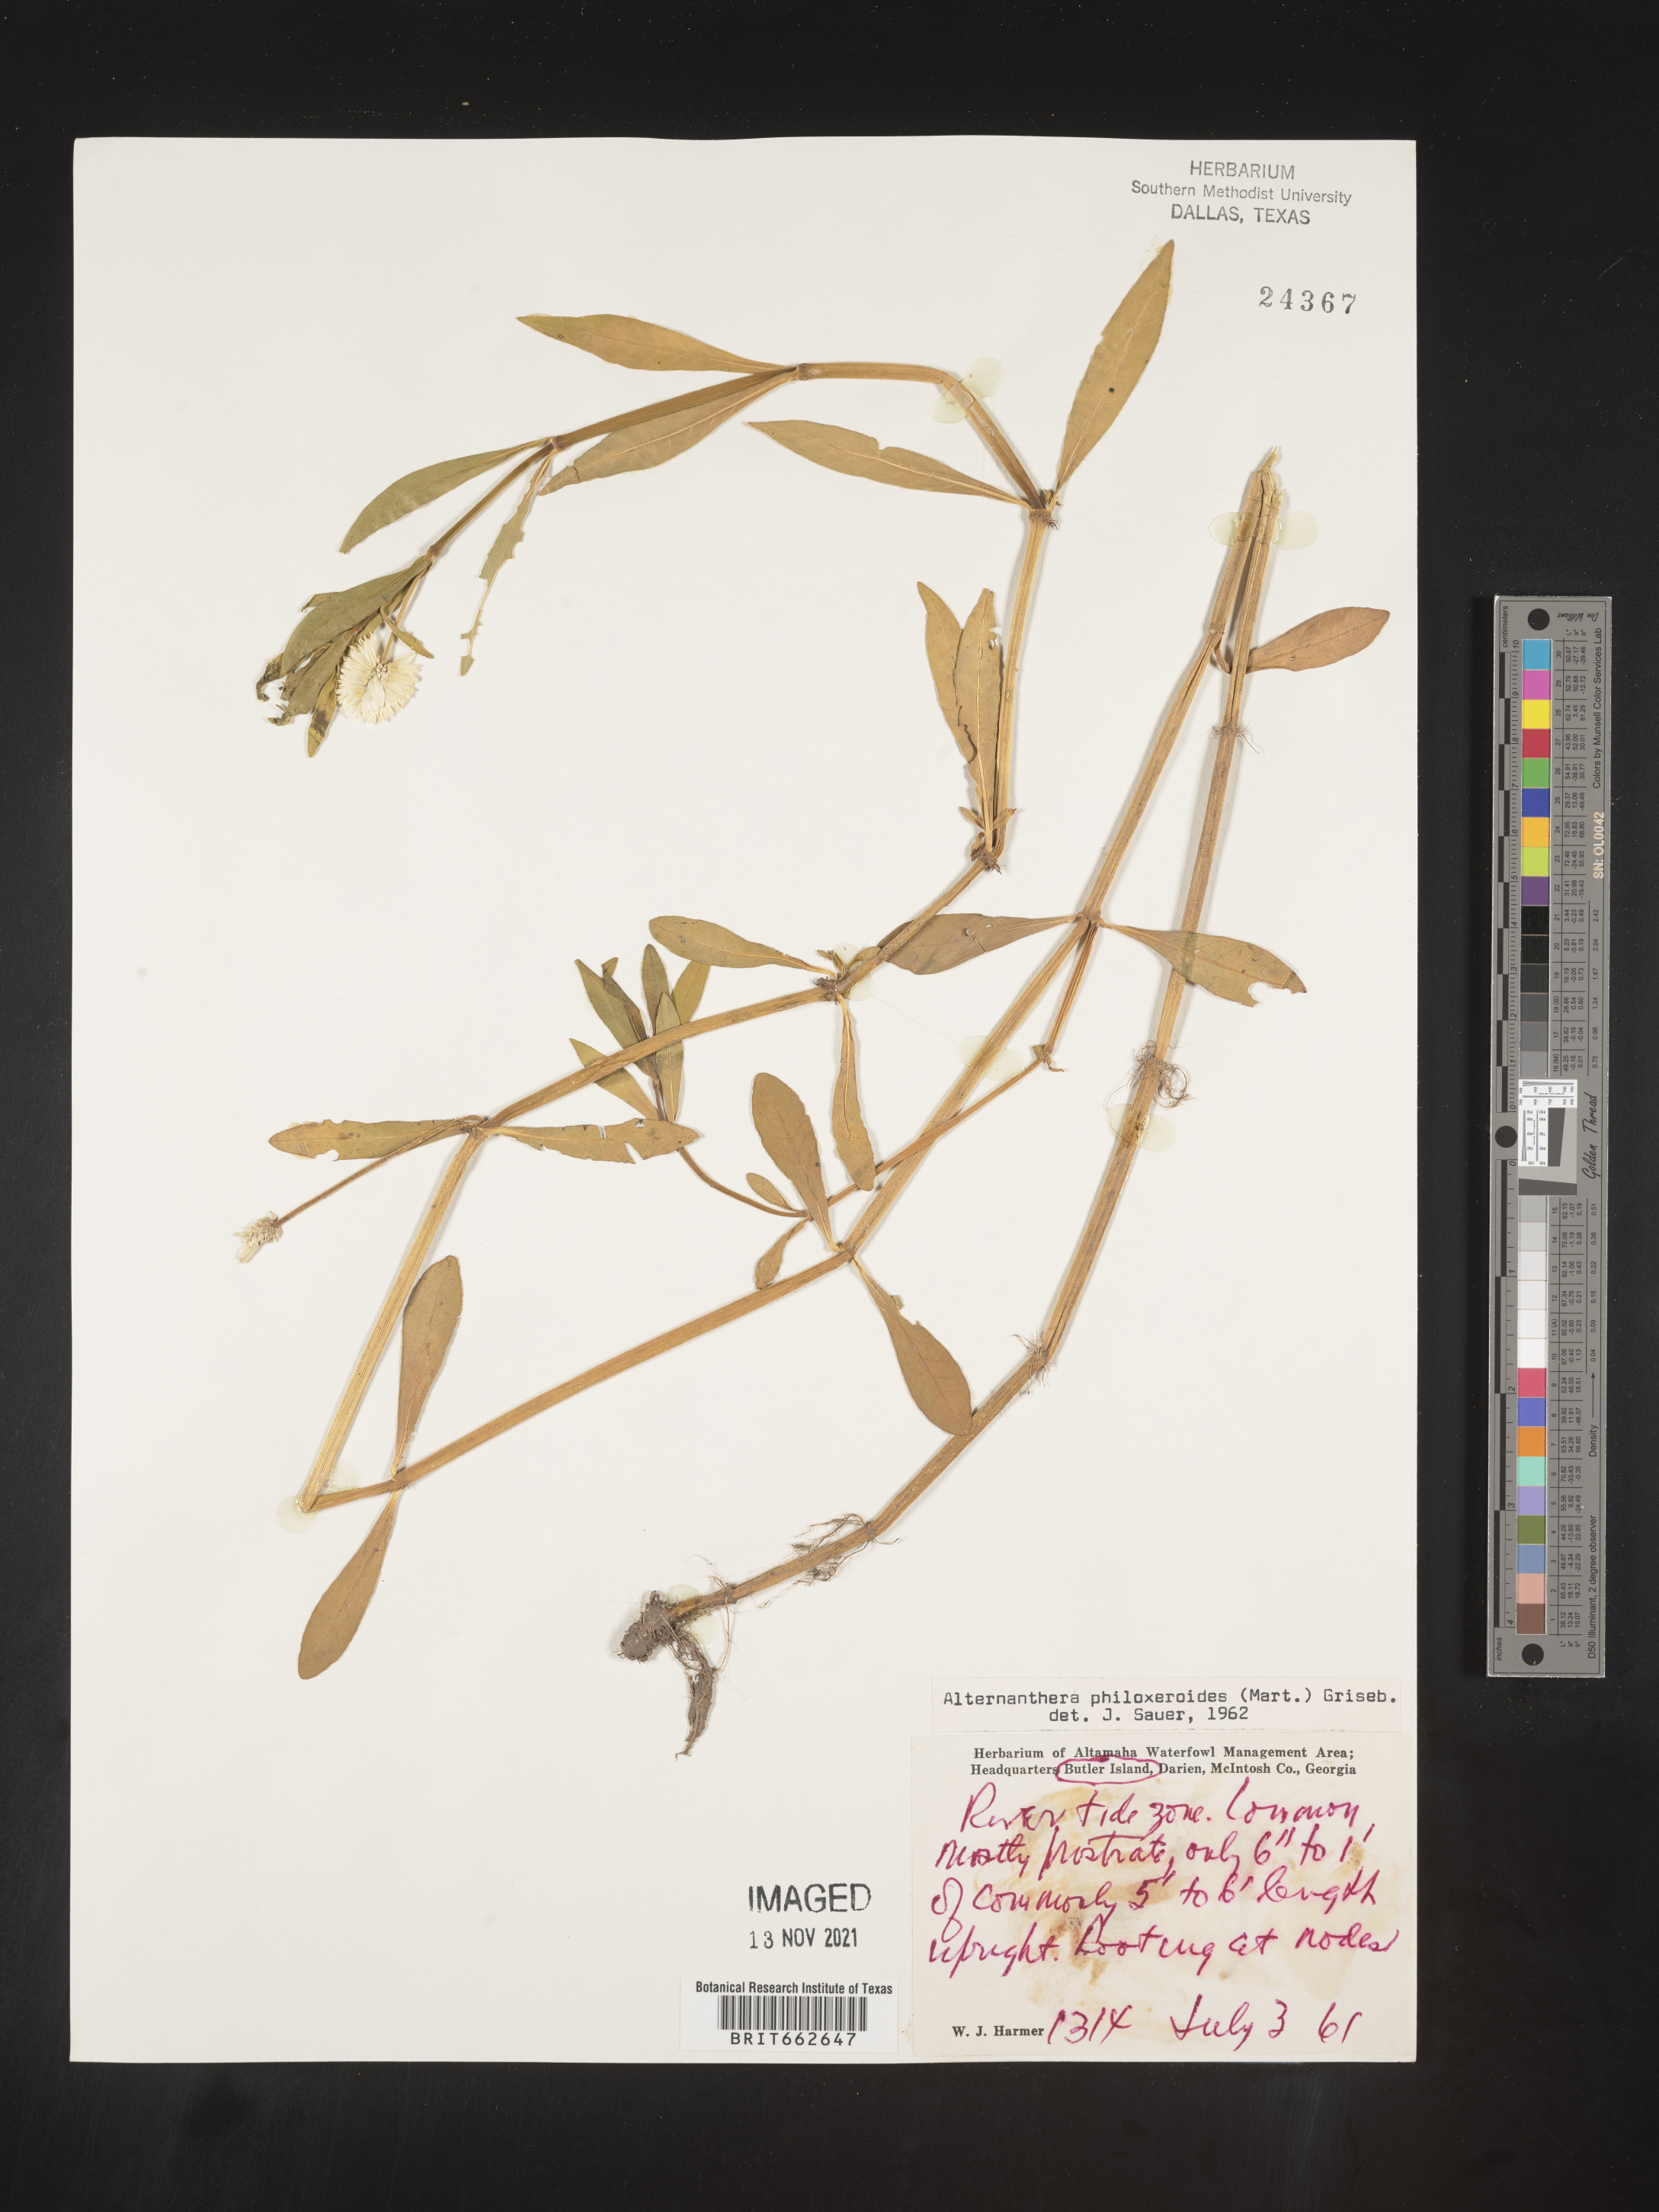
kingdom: Plantae
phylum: Tracheophyta
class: Magnoliopsida
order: Caryophyllales
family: Amaranthaceae
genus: Alternanthera
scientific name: Alternanthera philoxeroides
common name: Alligatorweed
